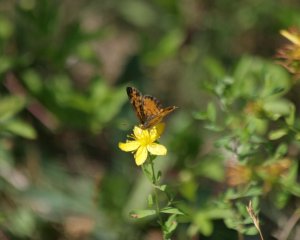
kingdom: Animalia
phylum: Arthropoda
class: Insecta
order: Lepidoptera
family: Nymphalidae
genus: Phyciodes
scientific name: Phyciodes tharos
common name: Northern Crescent
